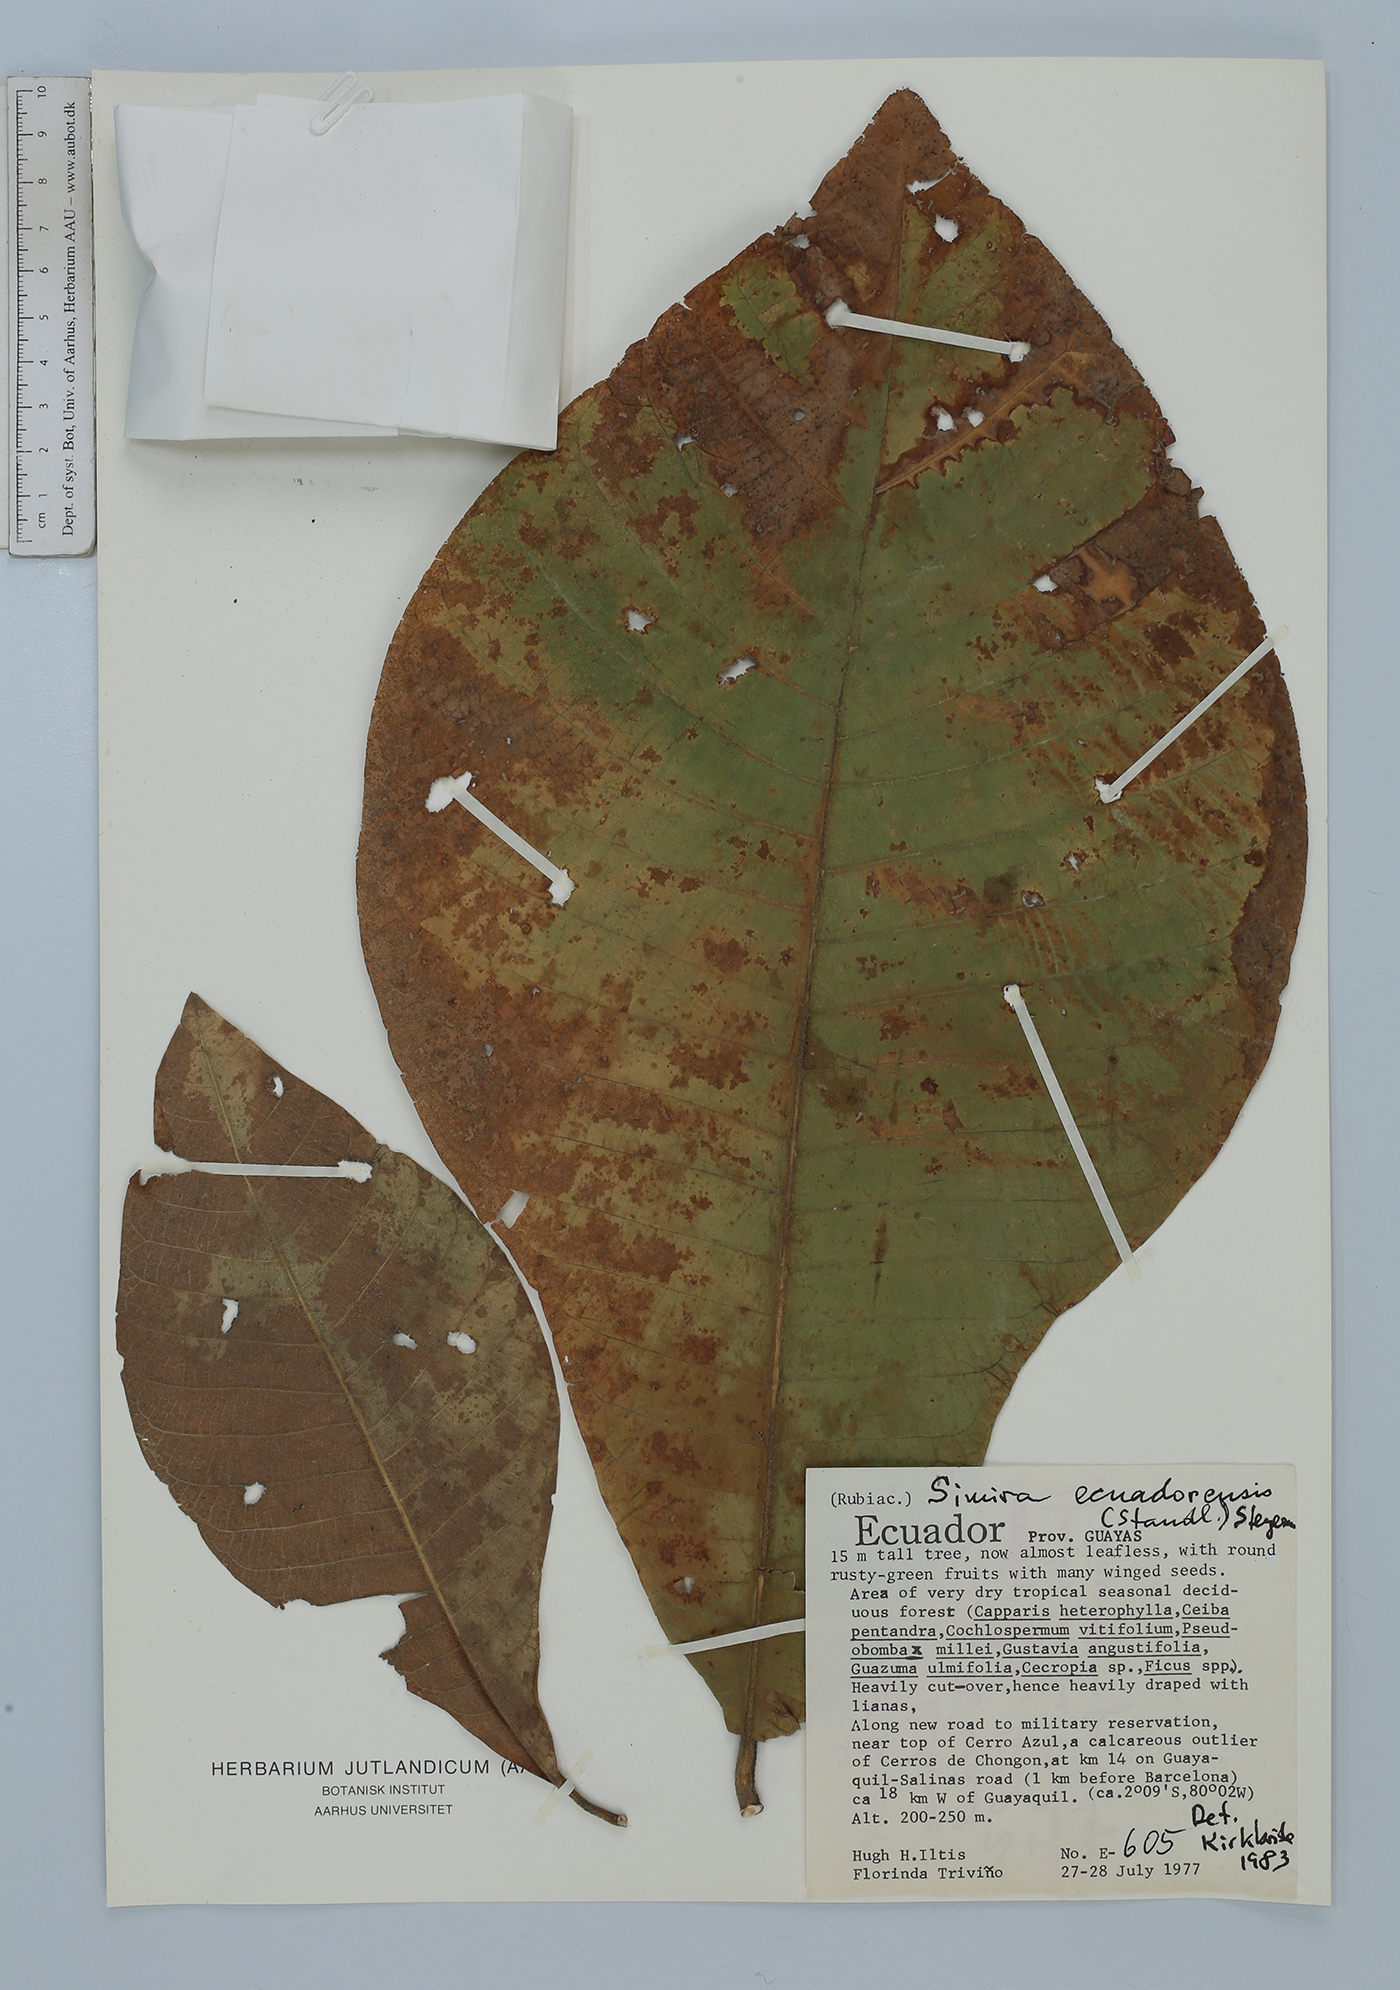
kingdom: Plantae
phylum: Tracheophyta
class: Magnoliopsida
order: Gentianales
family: Rubiaceae
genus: Simira
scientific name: Simira ecuadorensis
